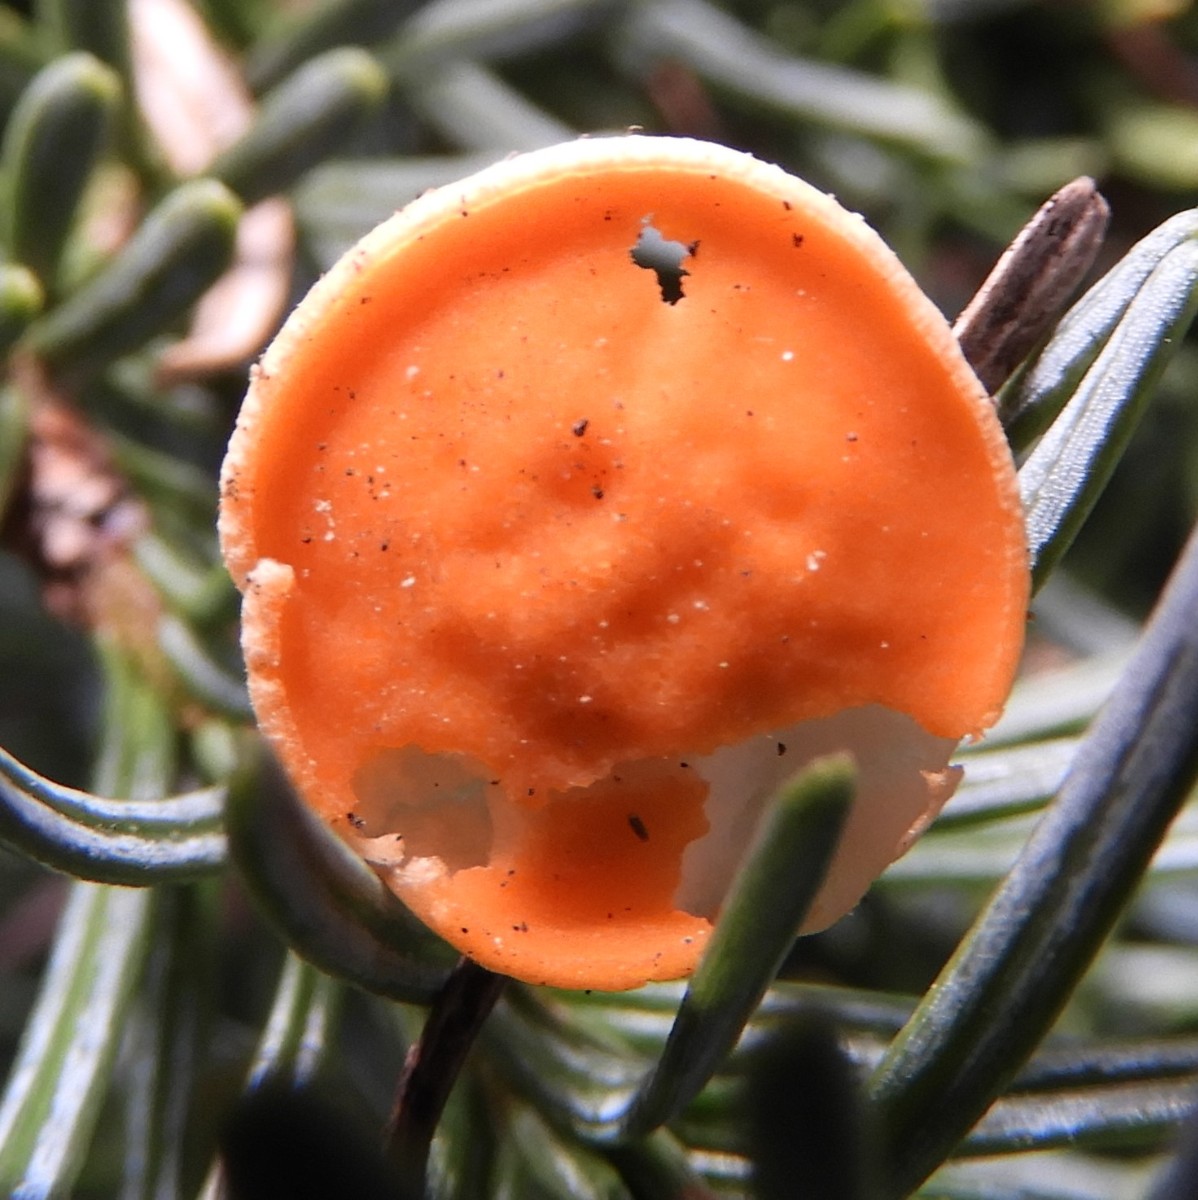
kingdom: Fungi
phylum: Ascomycota
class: Pezizomycetes
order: Pezizales
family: Sarcoscyphaceae
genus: Pithya
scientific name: Pithya vulgaris
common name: stor dukatbæger
